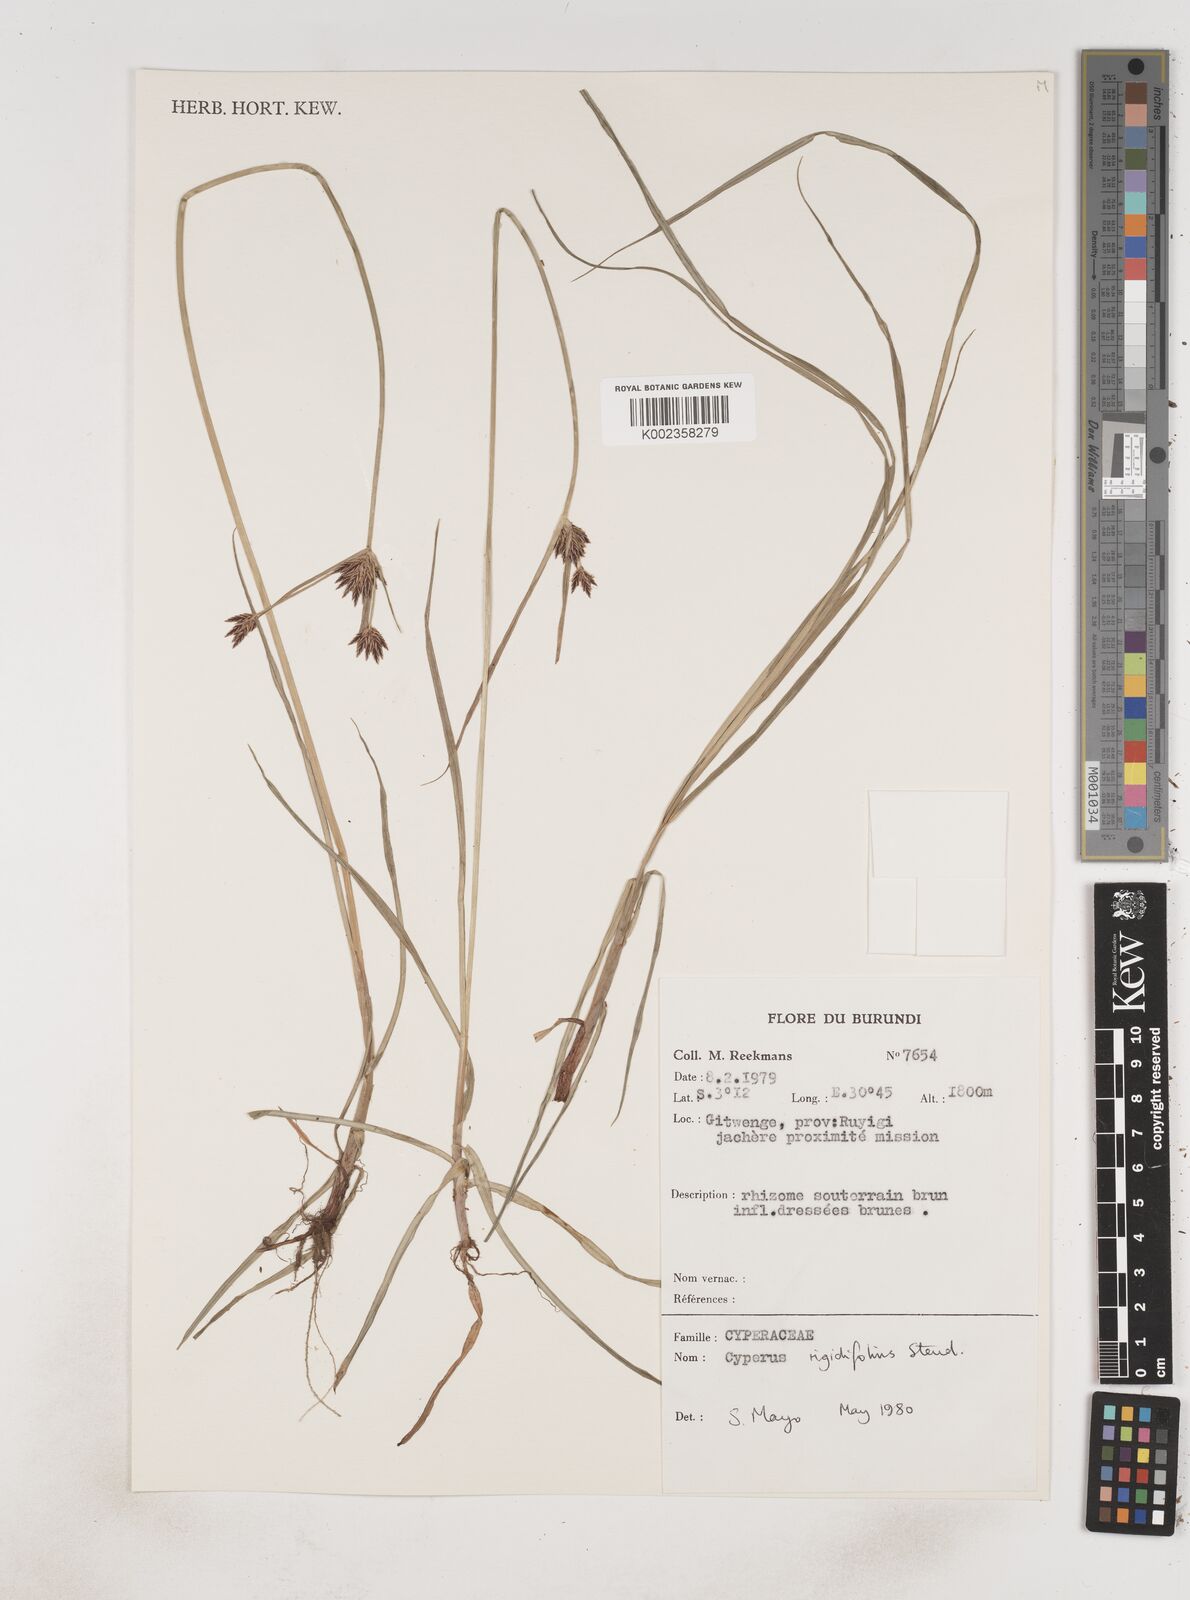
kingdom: Plantae
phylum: Tracheophyta
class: Liliopsida
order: Poales
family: Cyperaceae
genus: Cyperus
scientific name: Cyperus rigidifolius
